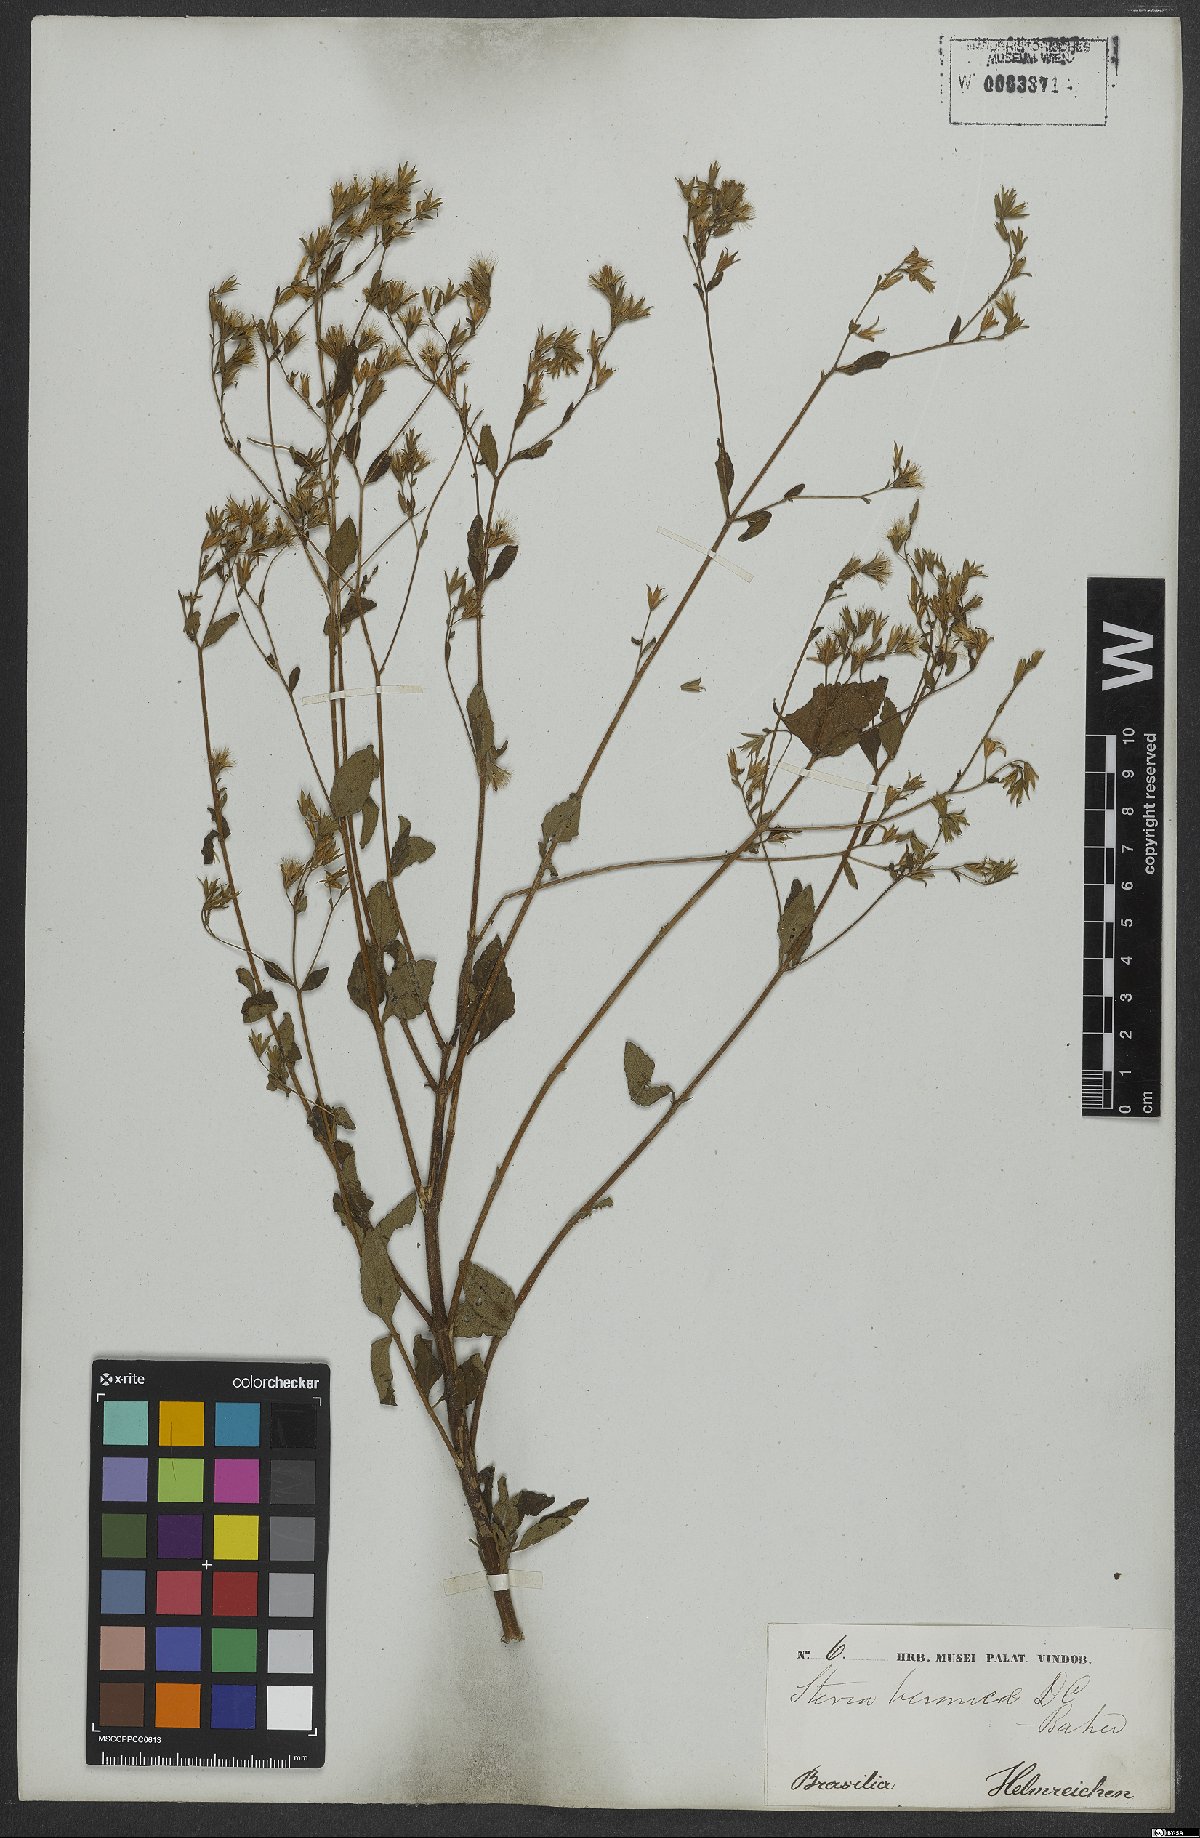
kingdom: Plantae
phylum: Tracheophyta
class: Magnoliopsida
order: Asterales
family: Asteraceae
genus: Stevia
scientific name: Stevia veronicae
